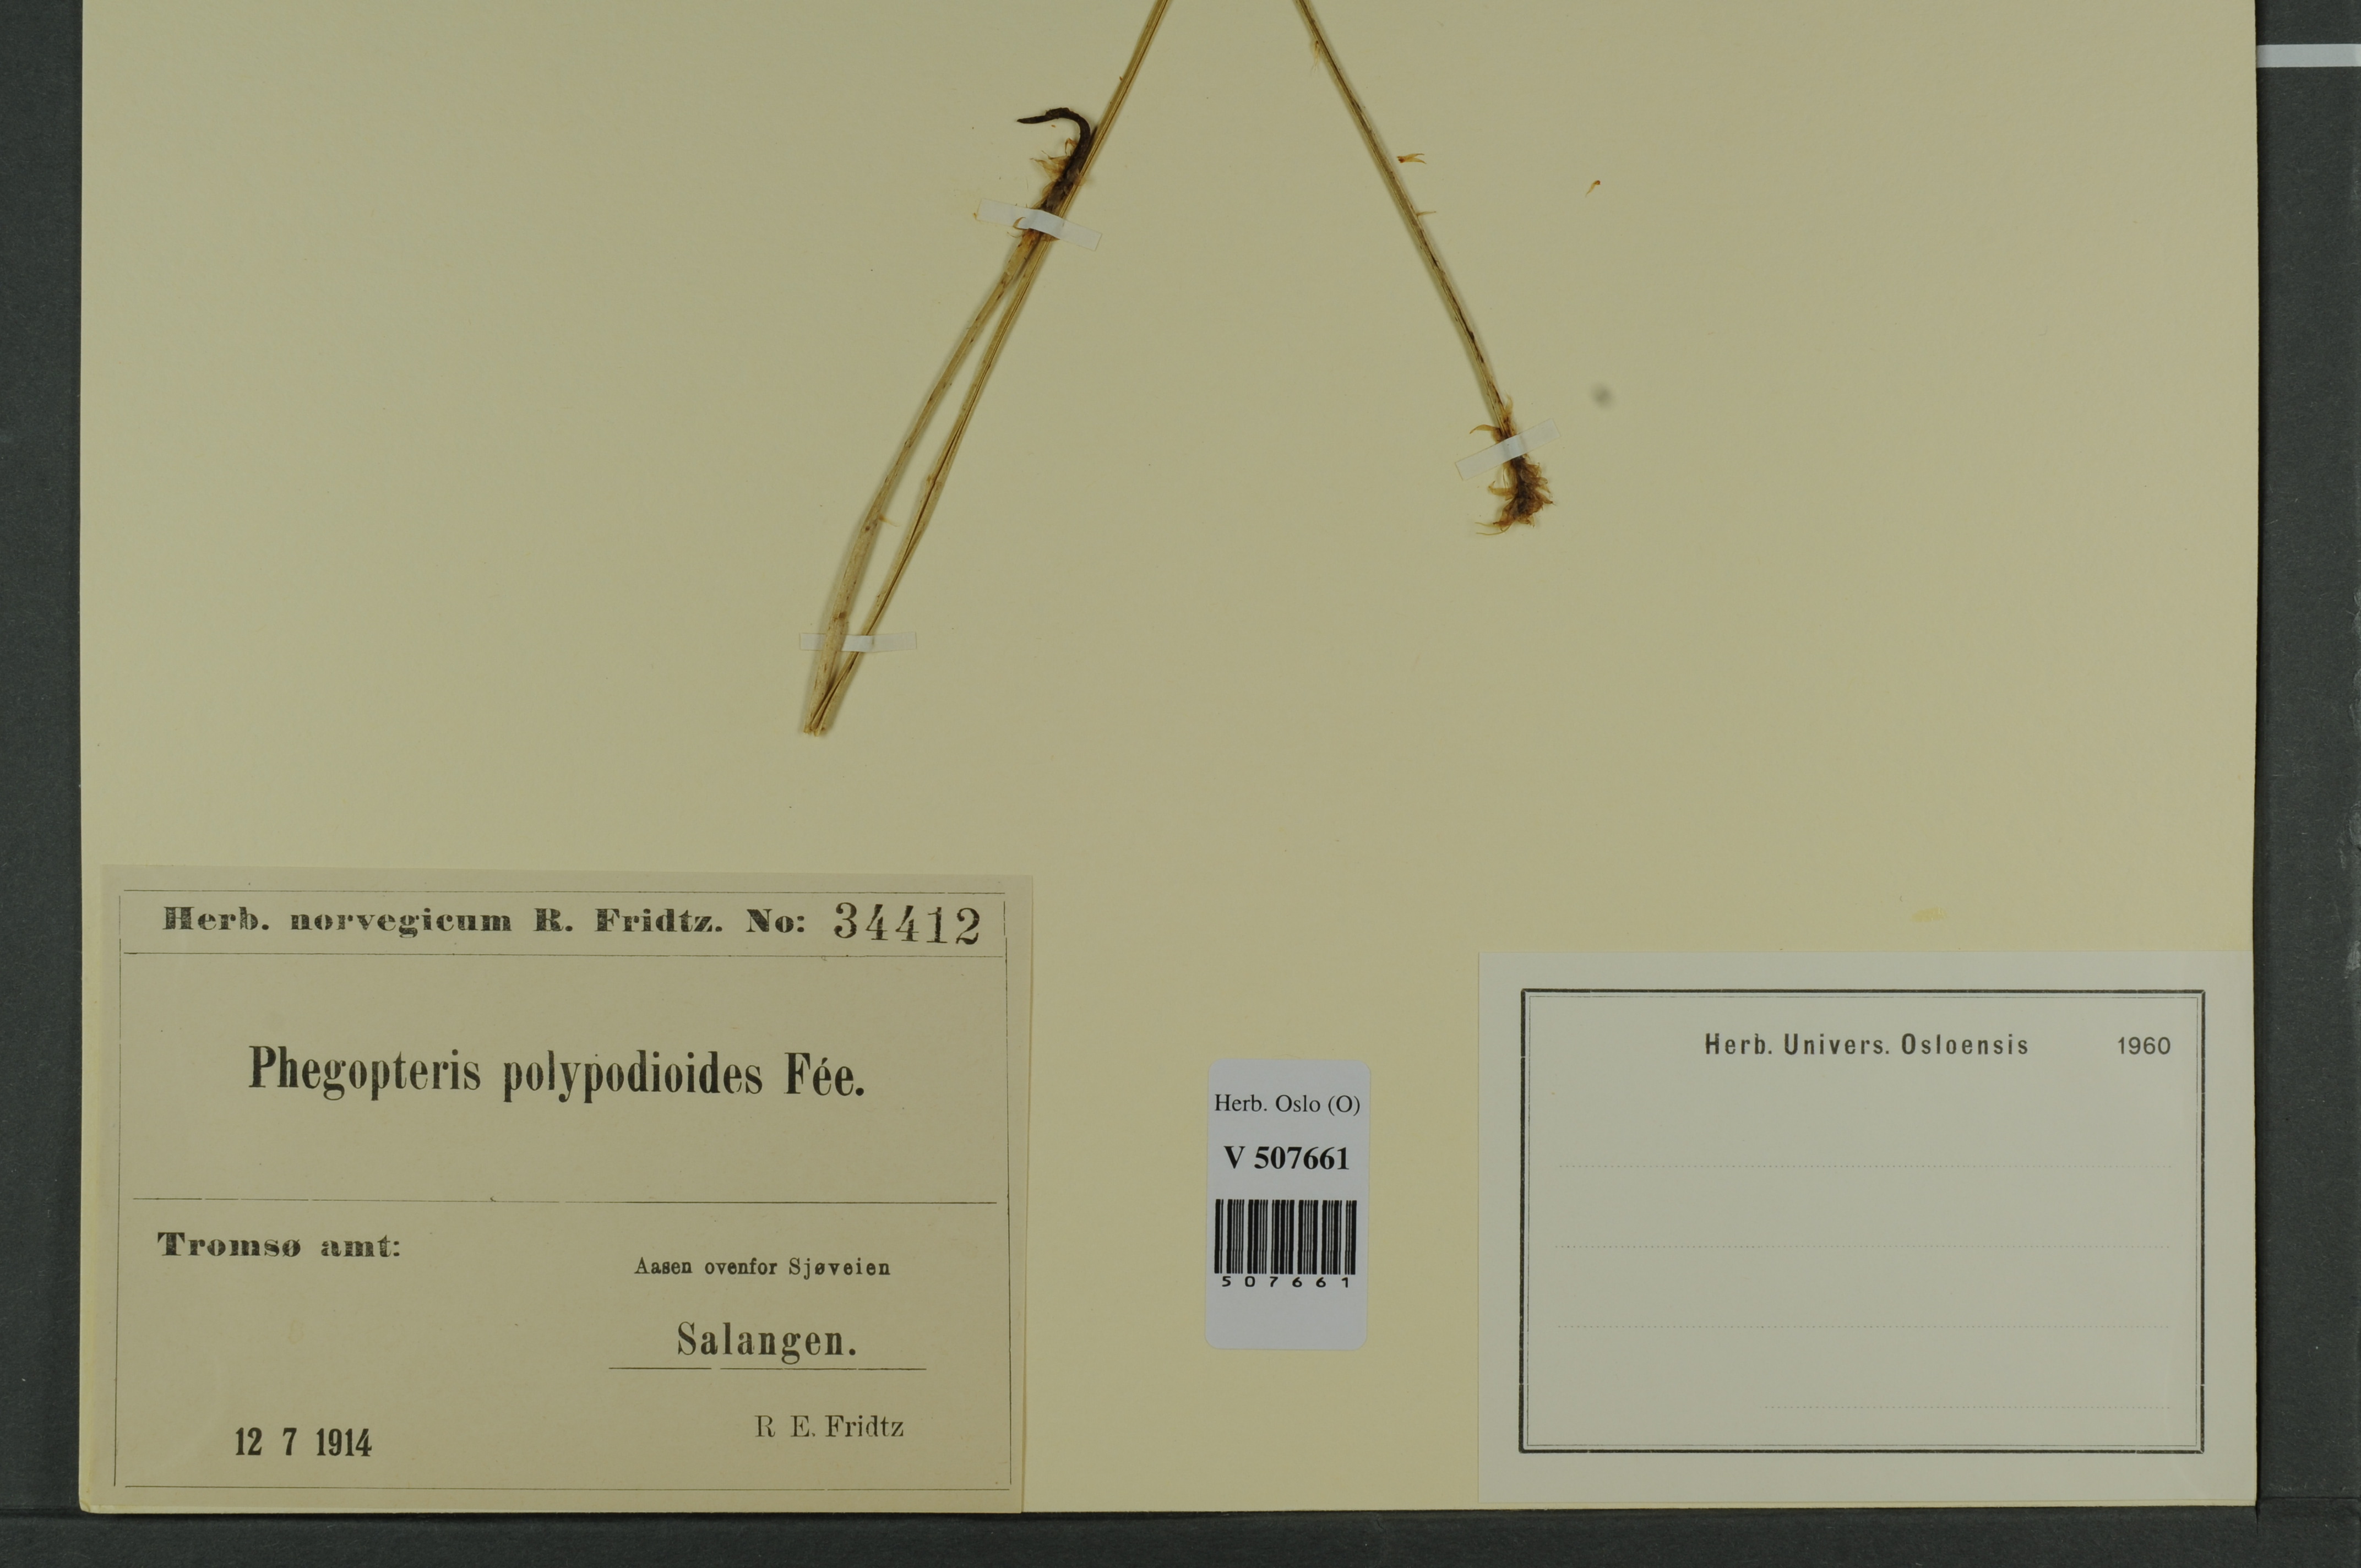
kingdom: Plantae
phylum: Tracheophyta
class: Polypodiopsida
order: Polypodiales
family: Thelypteridaceae
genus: Phegopteris
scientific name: Phegopteris connectilis
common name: Beech fern
